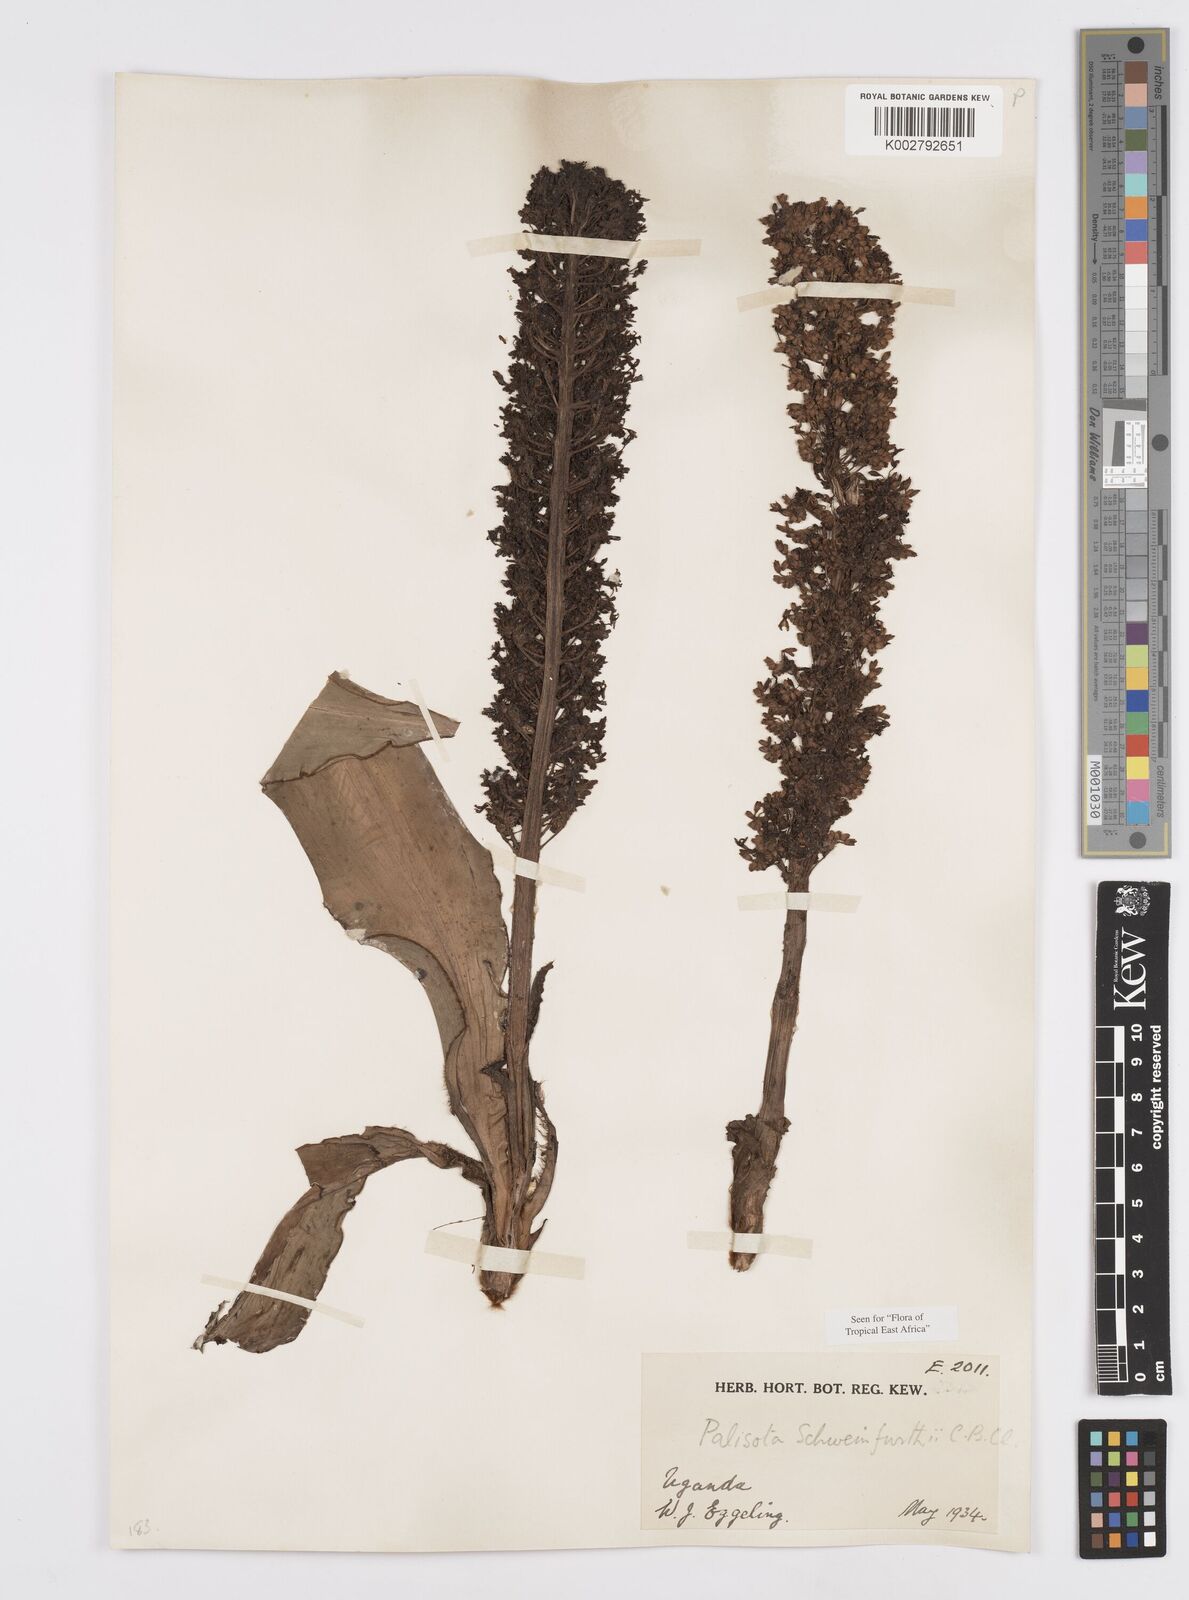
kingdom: Plantae
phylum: Tracheophyta
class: Liliopsida
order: Commelinales
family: Commelinaceae
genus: Palisota
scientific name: Palisota schweinfurthii
